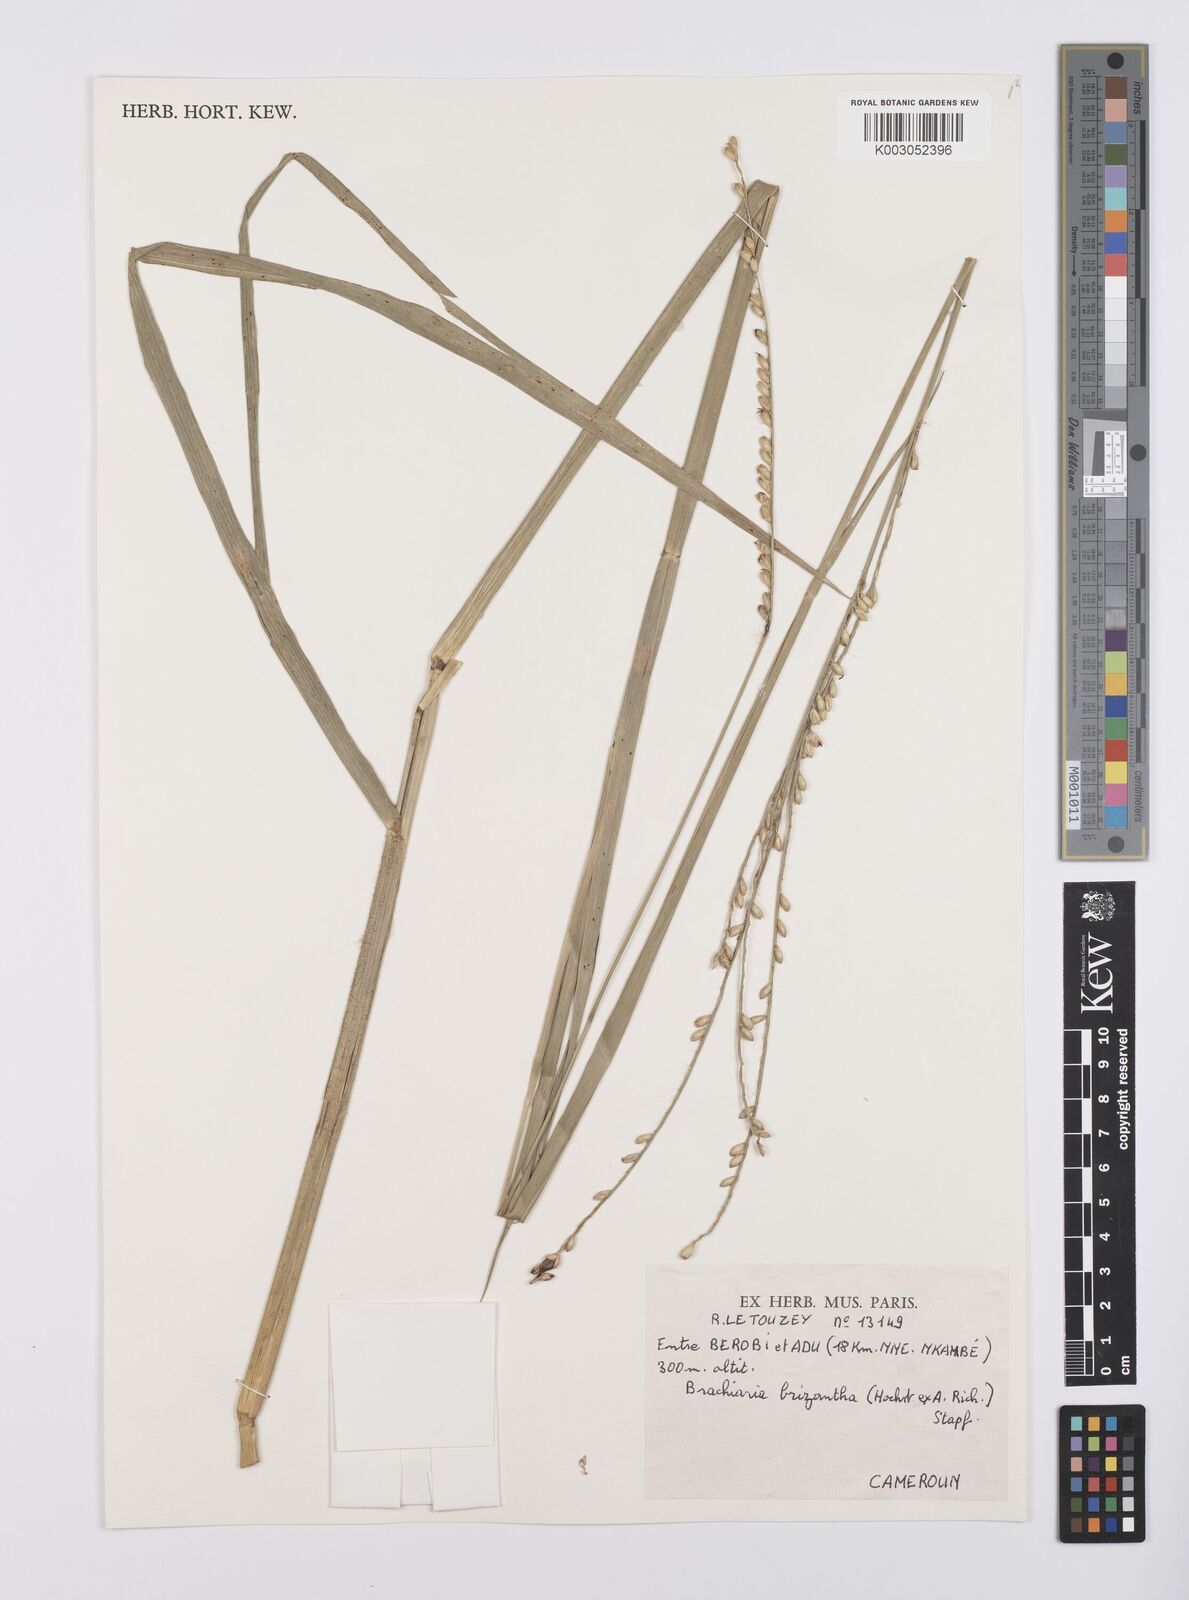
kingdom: Plantae
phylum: Tracheophyta
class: Liliopsida
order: Poales
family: Poaceae
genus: Urochloa
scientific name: Urochloa brizantha
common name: Palisade signalgrass
